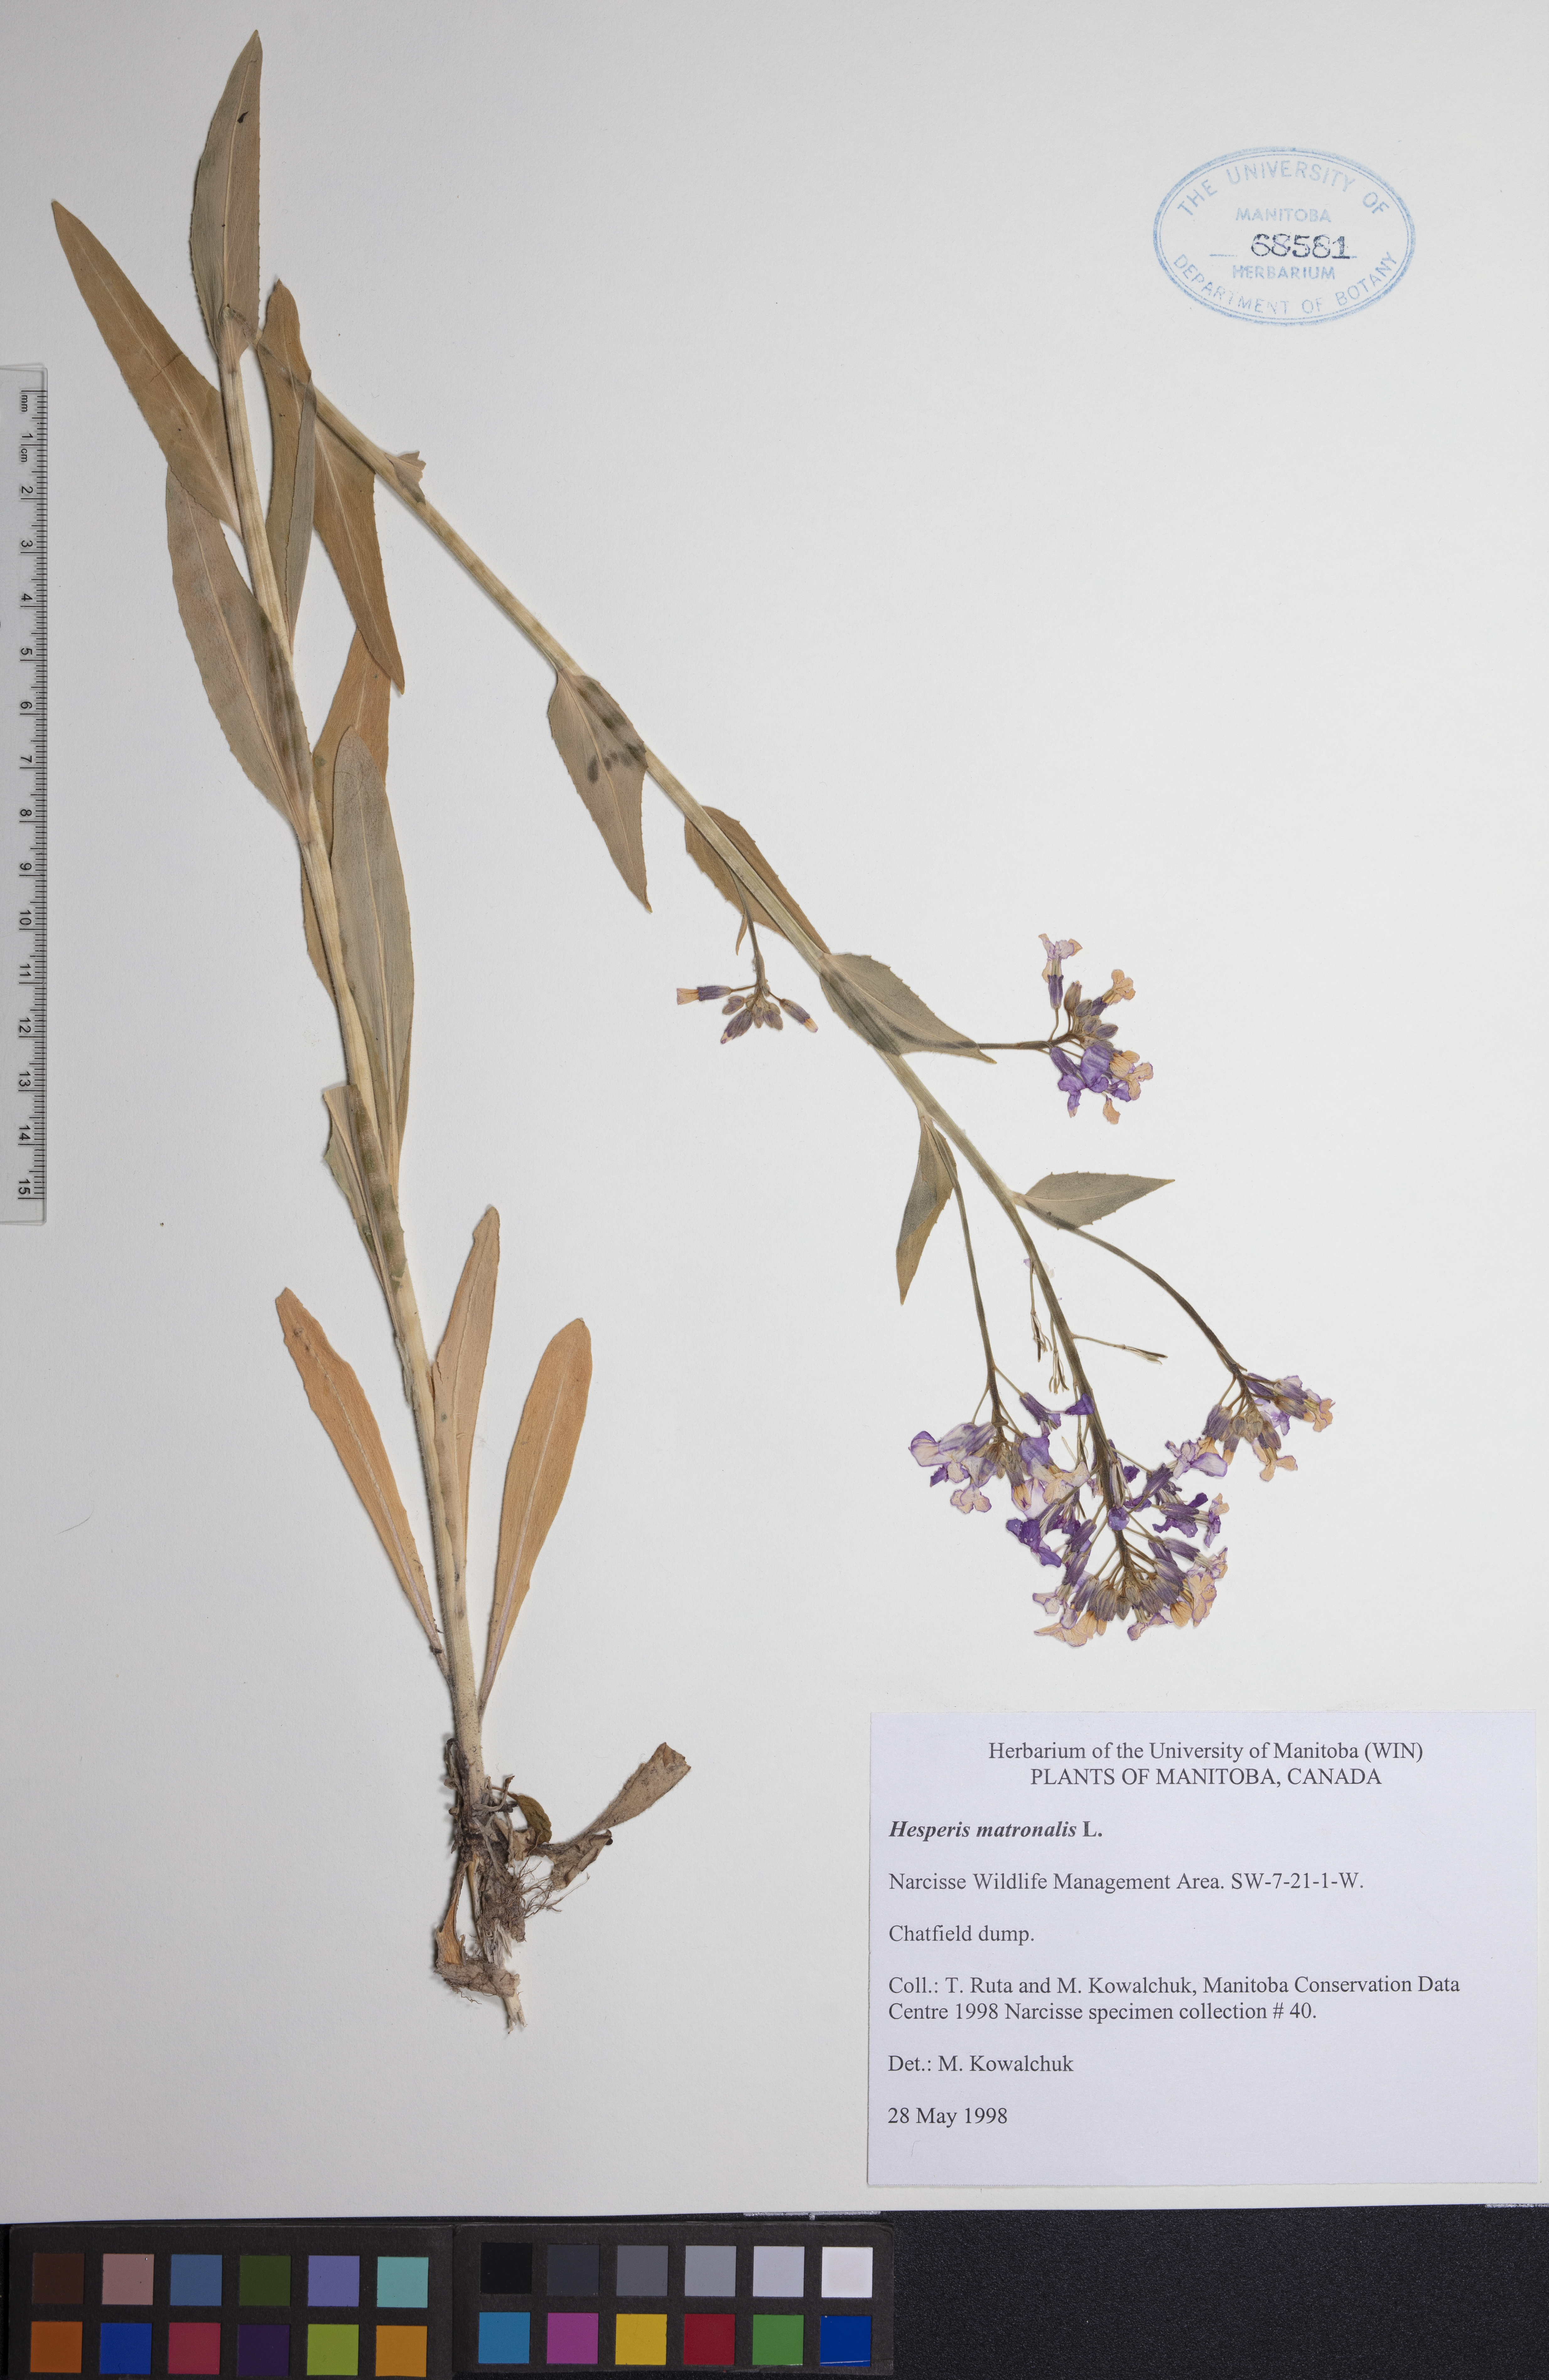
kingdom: Plantae
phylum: Tracheophyta
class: Magnoliopsida
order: Brassicales
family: Brassicaceae
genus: Hesperis
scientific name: Hesperis matronalis
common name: Dame's-violet
